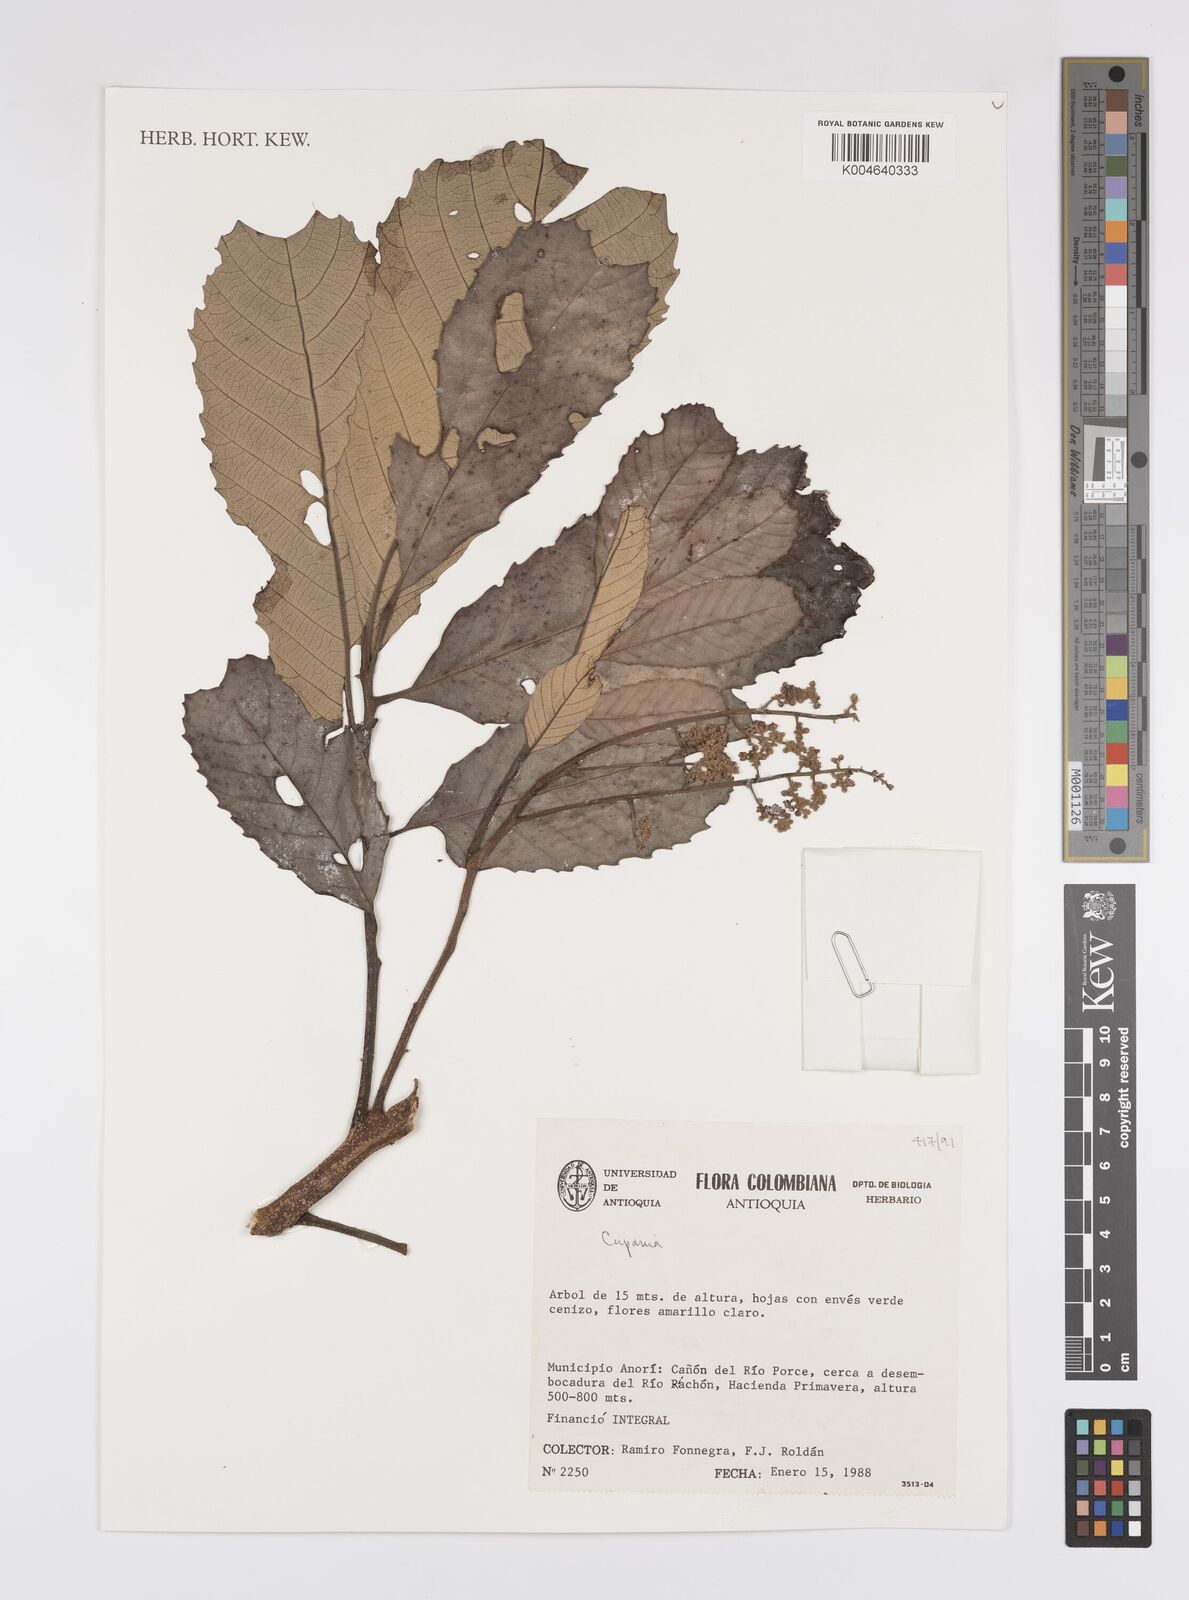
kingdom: Plantae
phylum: Tracheophyta
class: Magnoliopsida
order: Sapindales
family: Sapindaceae
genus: Cupania
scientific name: Cupania
